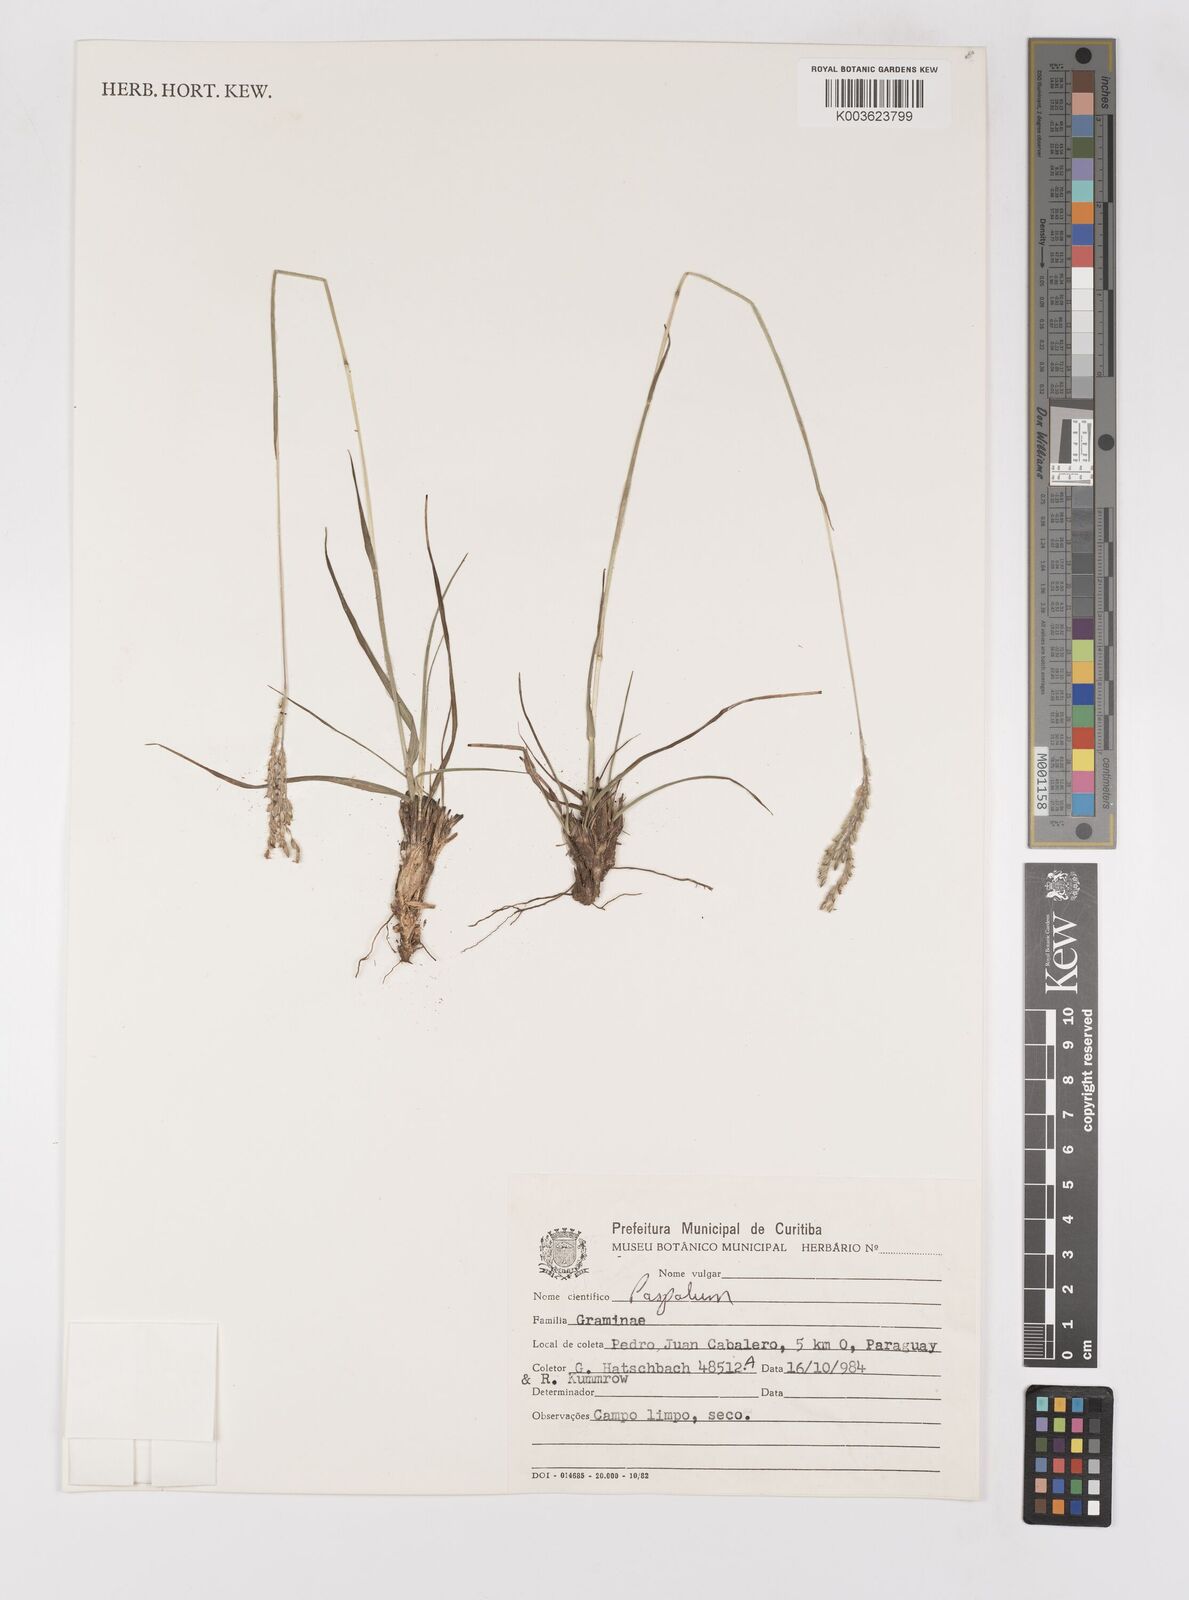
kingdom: Plantae
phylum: Tracheophyta
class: Liliopsida
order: Poales
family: Poaceae
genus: Paspalum
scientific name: Paspalum ammodes
